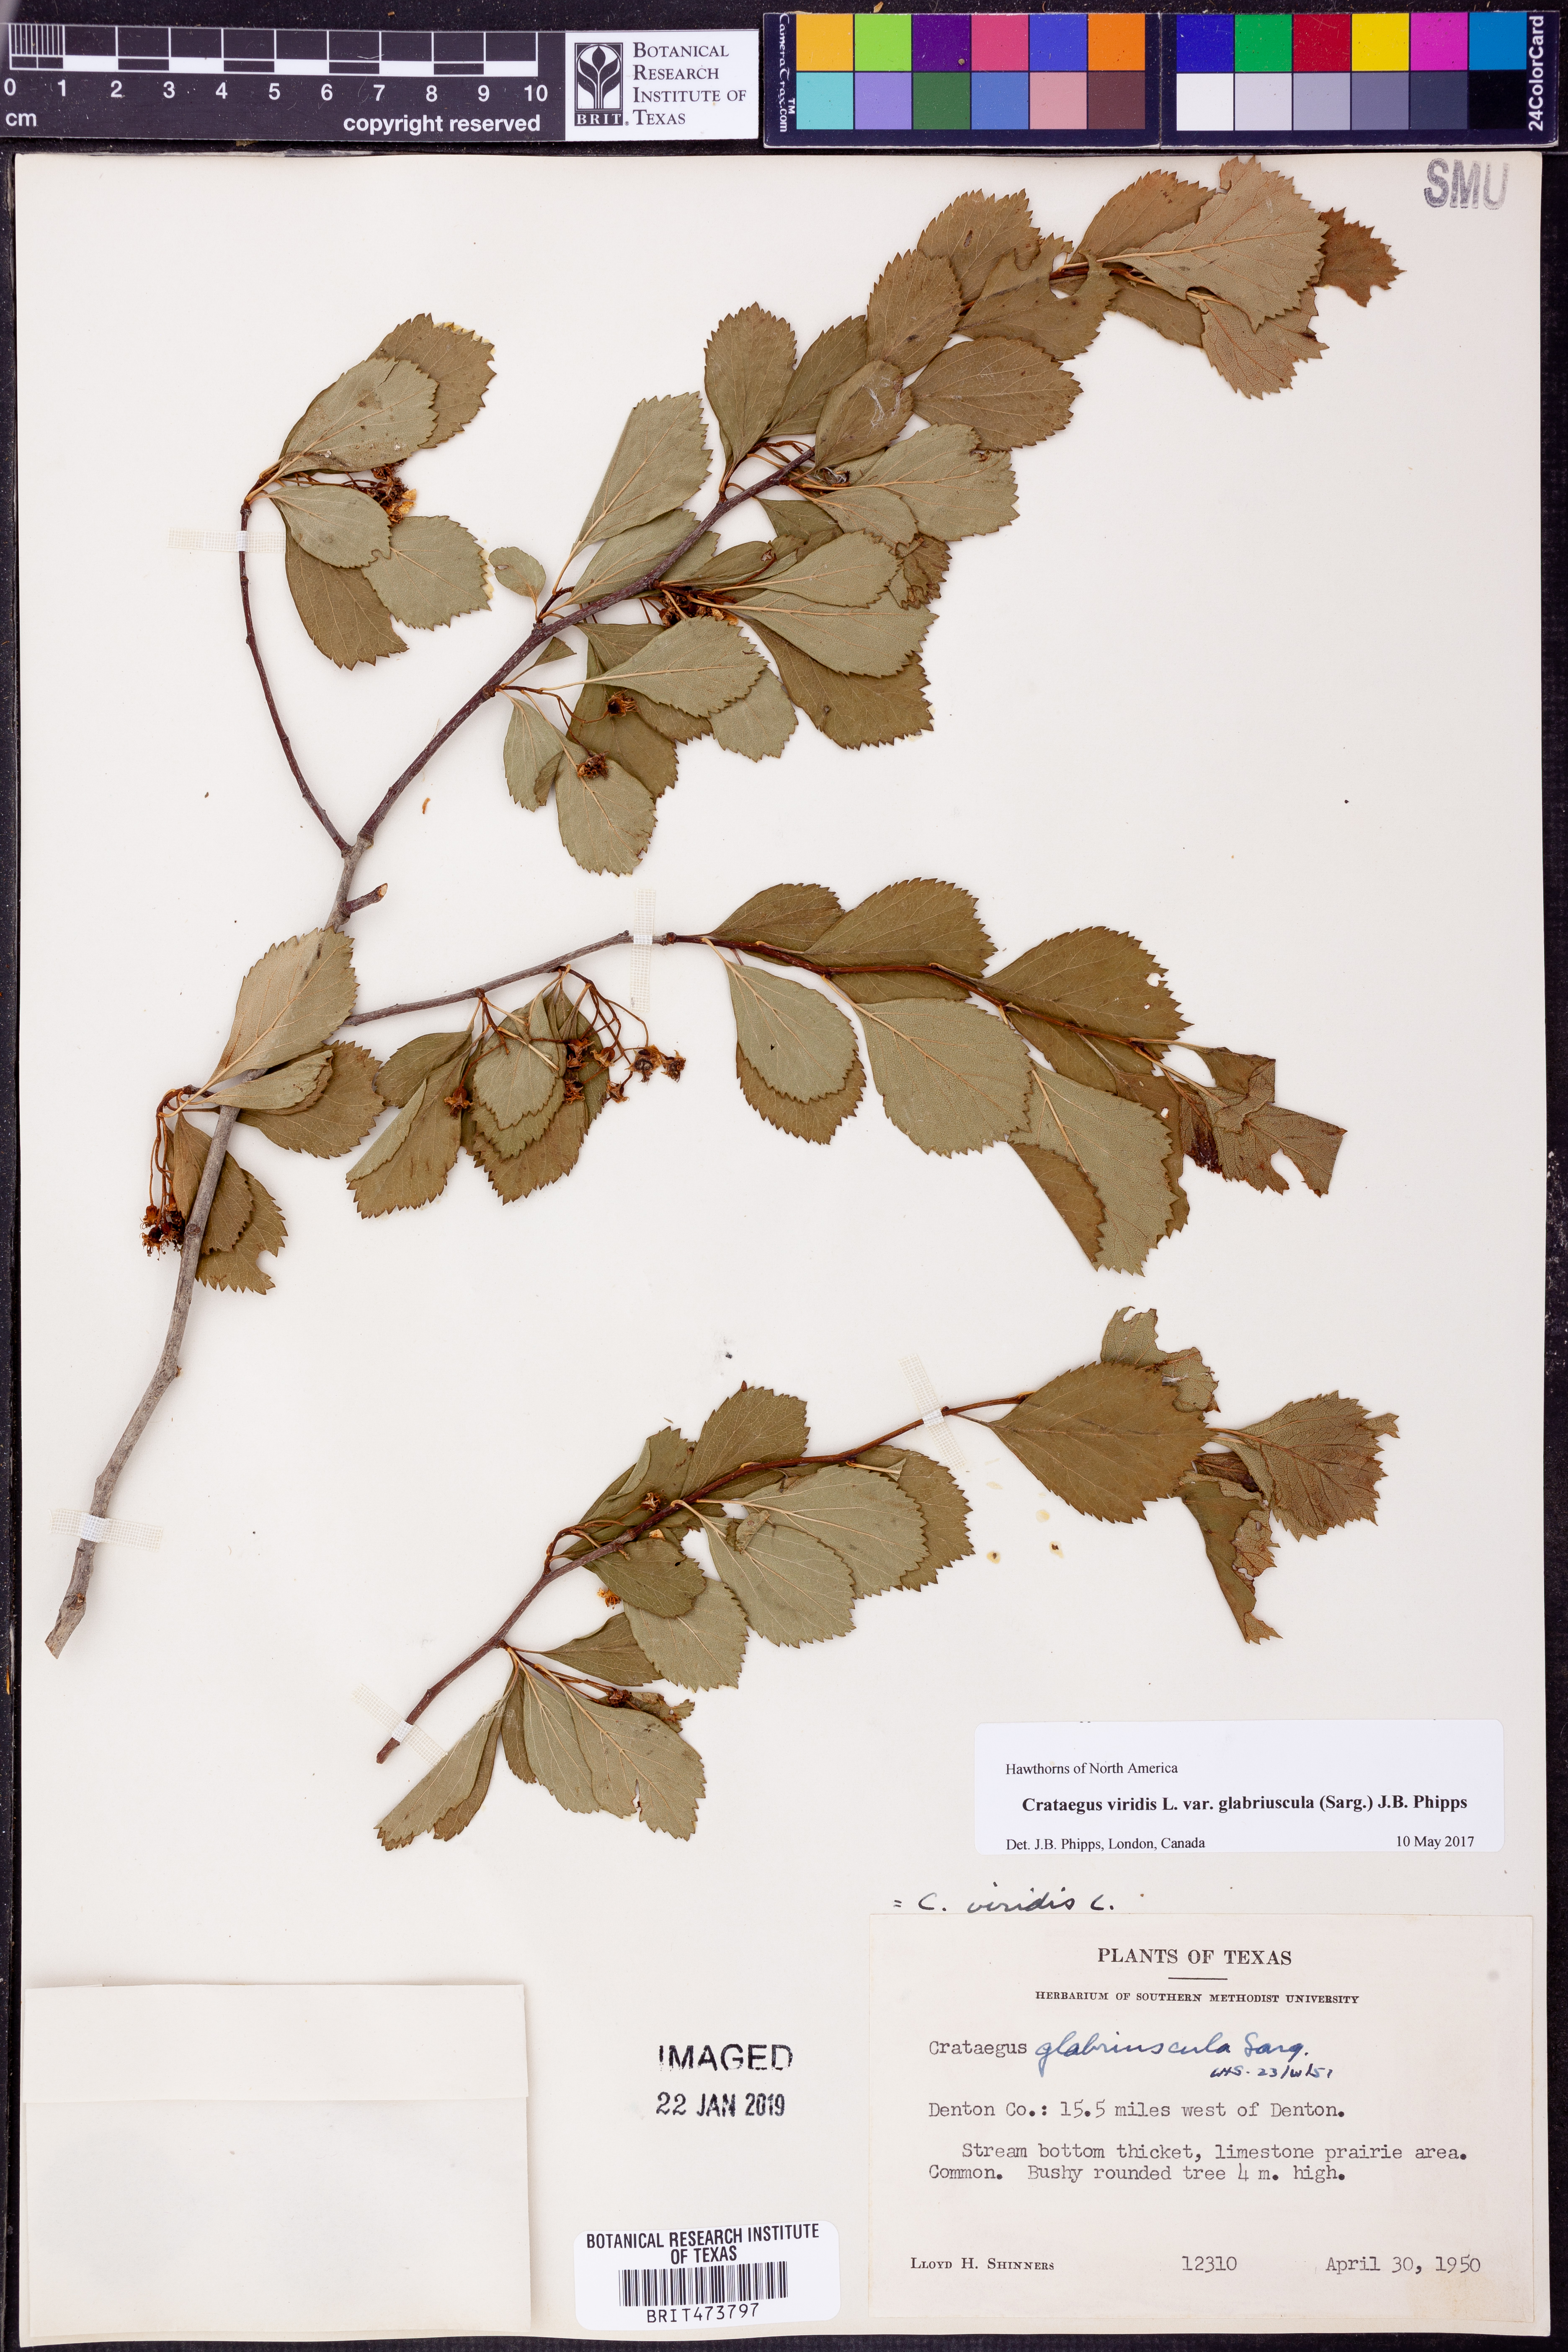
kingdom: Plantae
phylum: Tracheophyta
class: Magnoliopsida
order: Rosales
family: Rosaceae
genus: Crataegus
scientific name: Crataegus viridis
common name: Southernthorn
